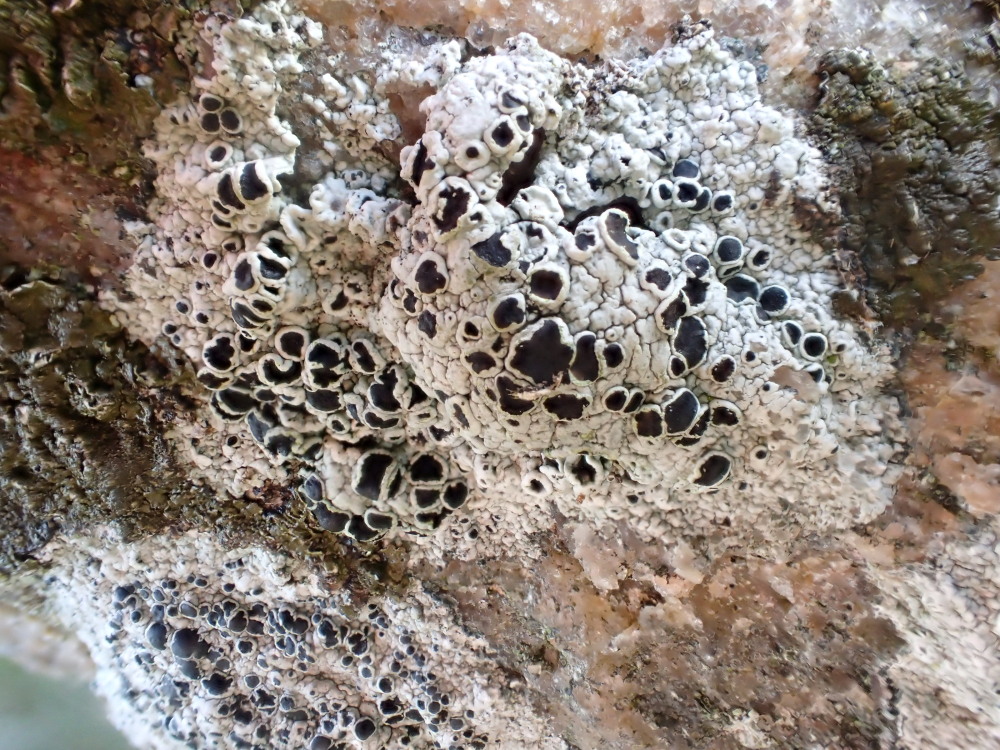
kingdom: Fungi
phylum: Ascomycota
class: Lecanoromycetes
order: Lecanorales
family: Tephromelataceae
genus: Tephromela
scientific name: Tephromela atra
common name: sortfrugtet kantskivelav
